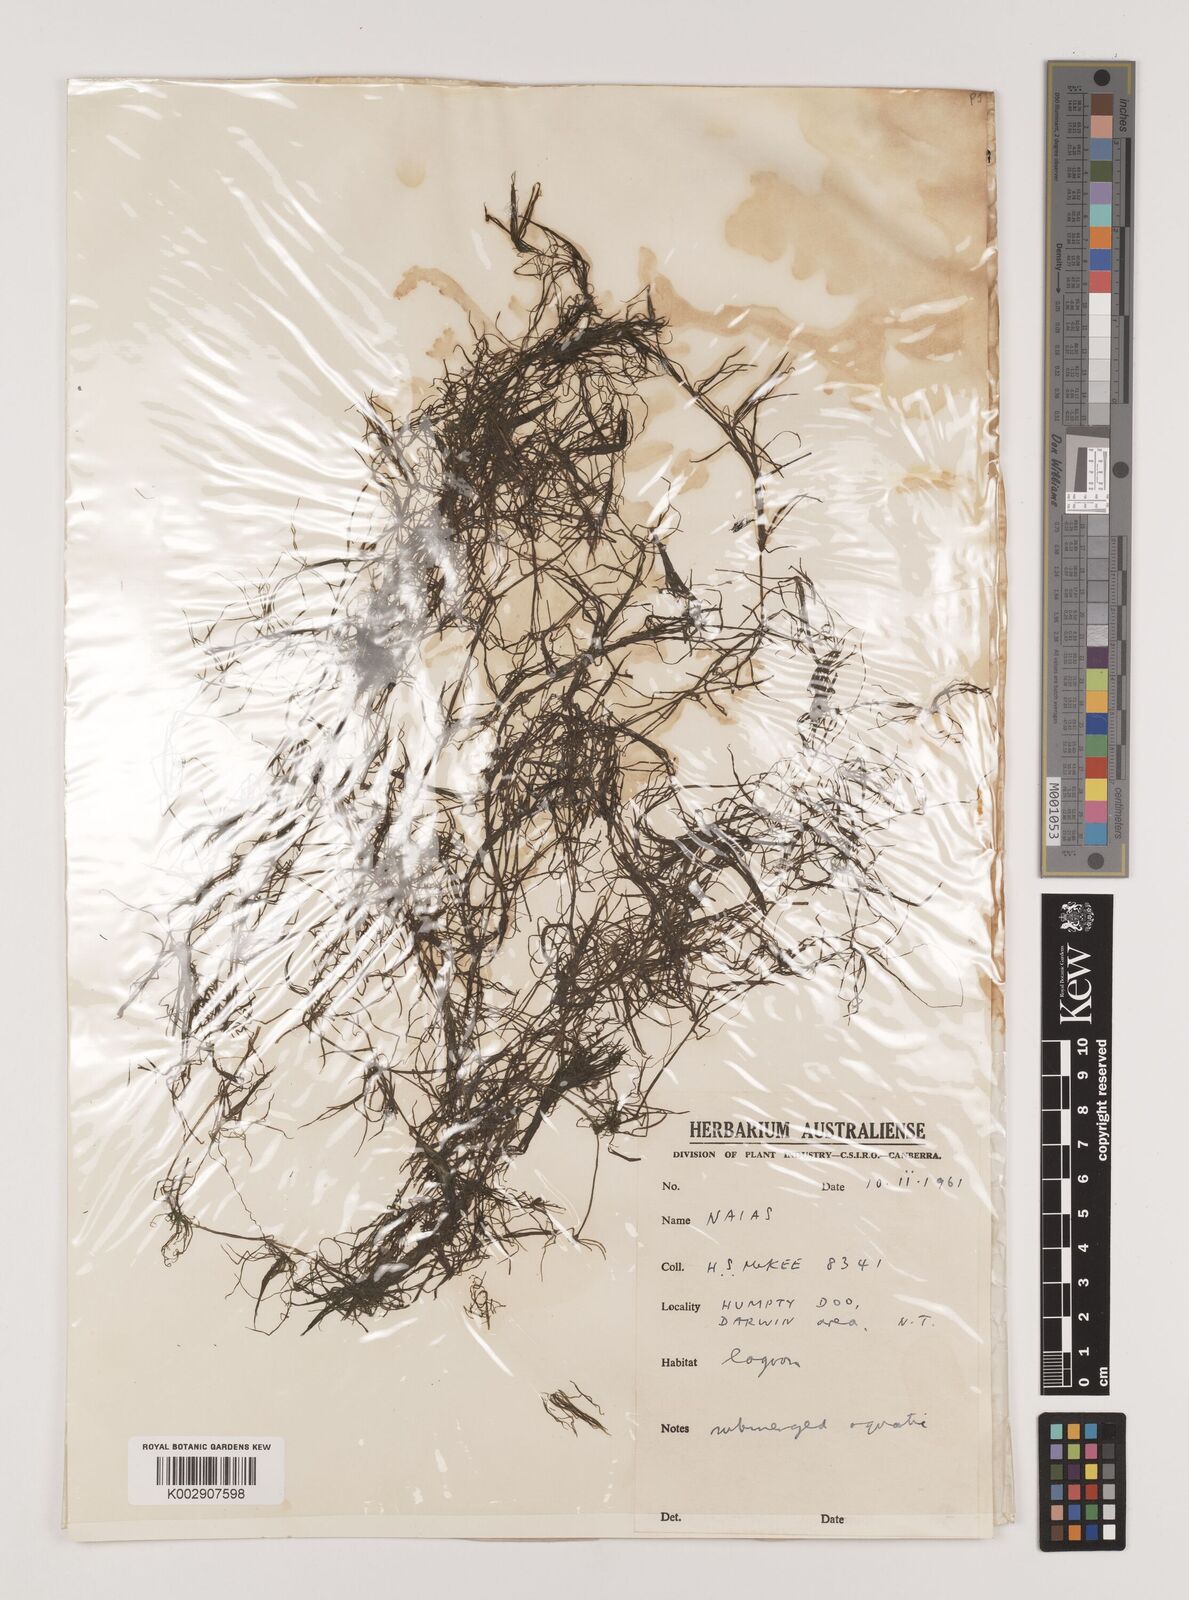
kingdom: Plantae
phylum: Tracheophyta
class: Liliopsida
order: Alismatales
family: Hydrocharitaceae
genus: Najas
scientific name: Najas
